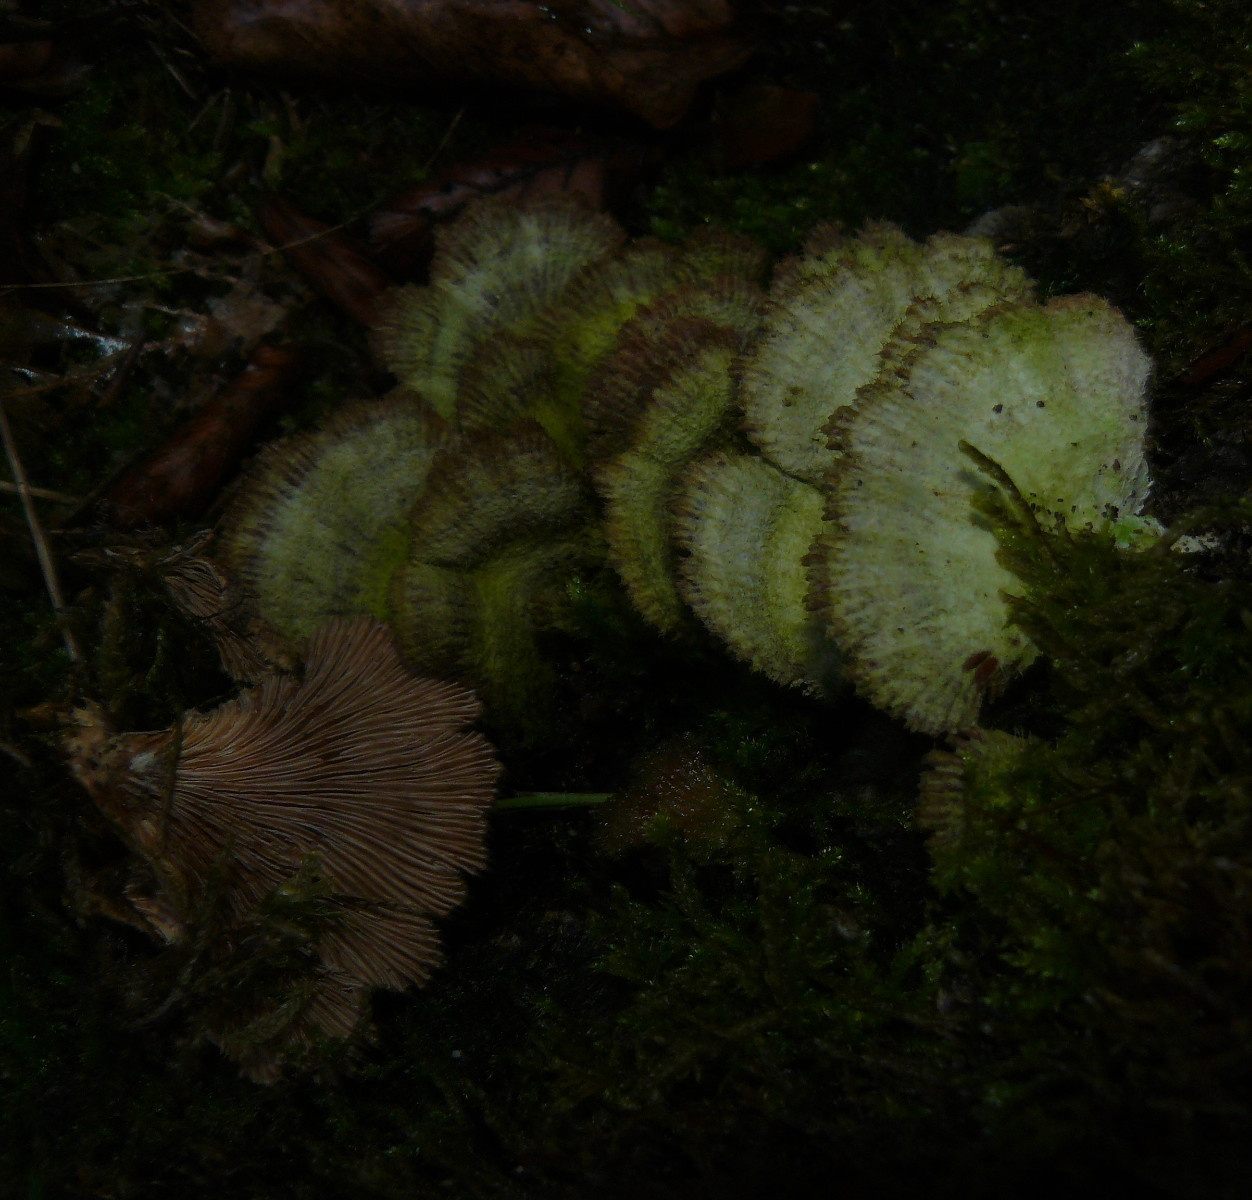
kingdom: Fungi
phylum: Basidiomycota
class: Agaricomycetes
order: Agaricales
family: Schizophyllaceae
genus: Schizophyllum
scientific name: Schizophyllum commune
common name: kløvblad
